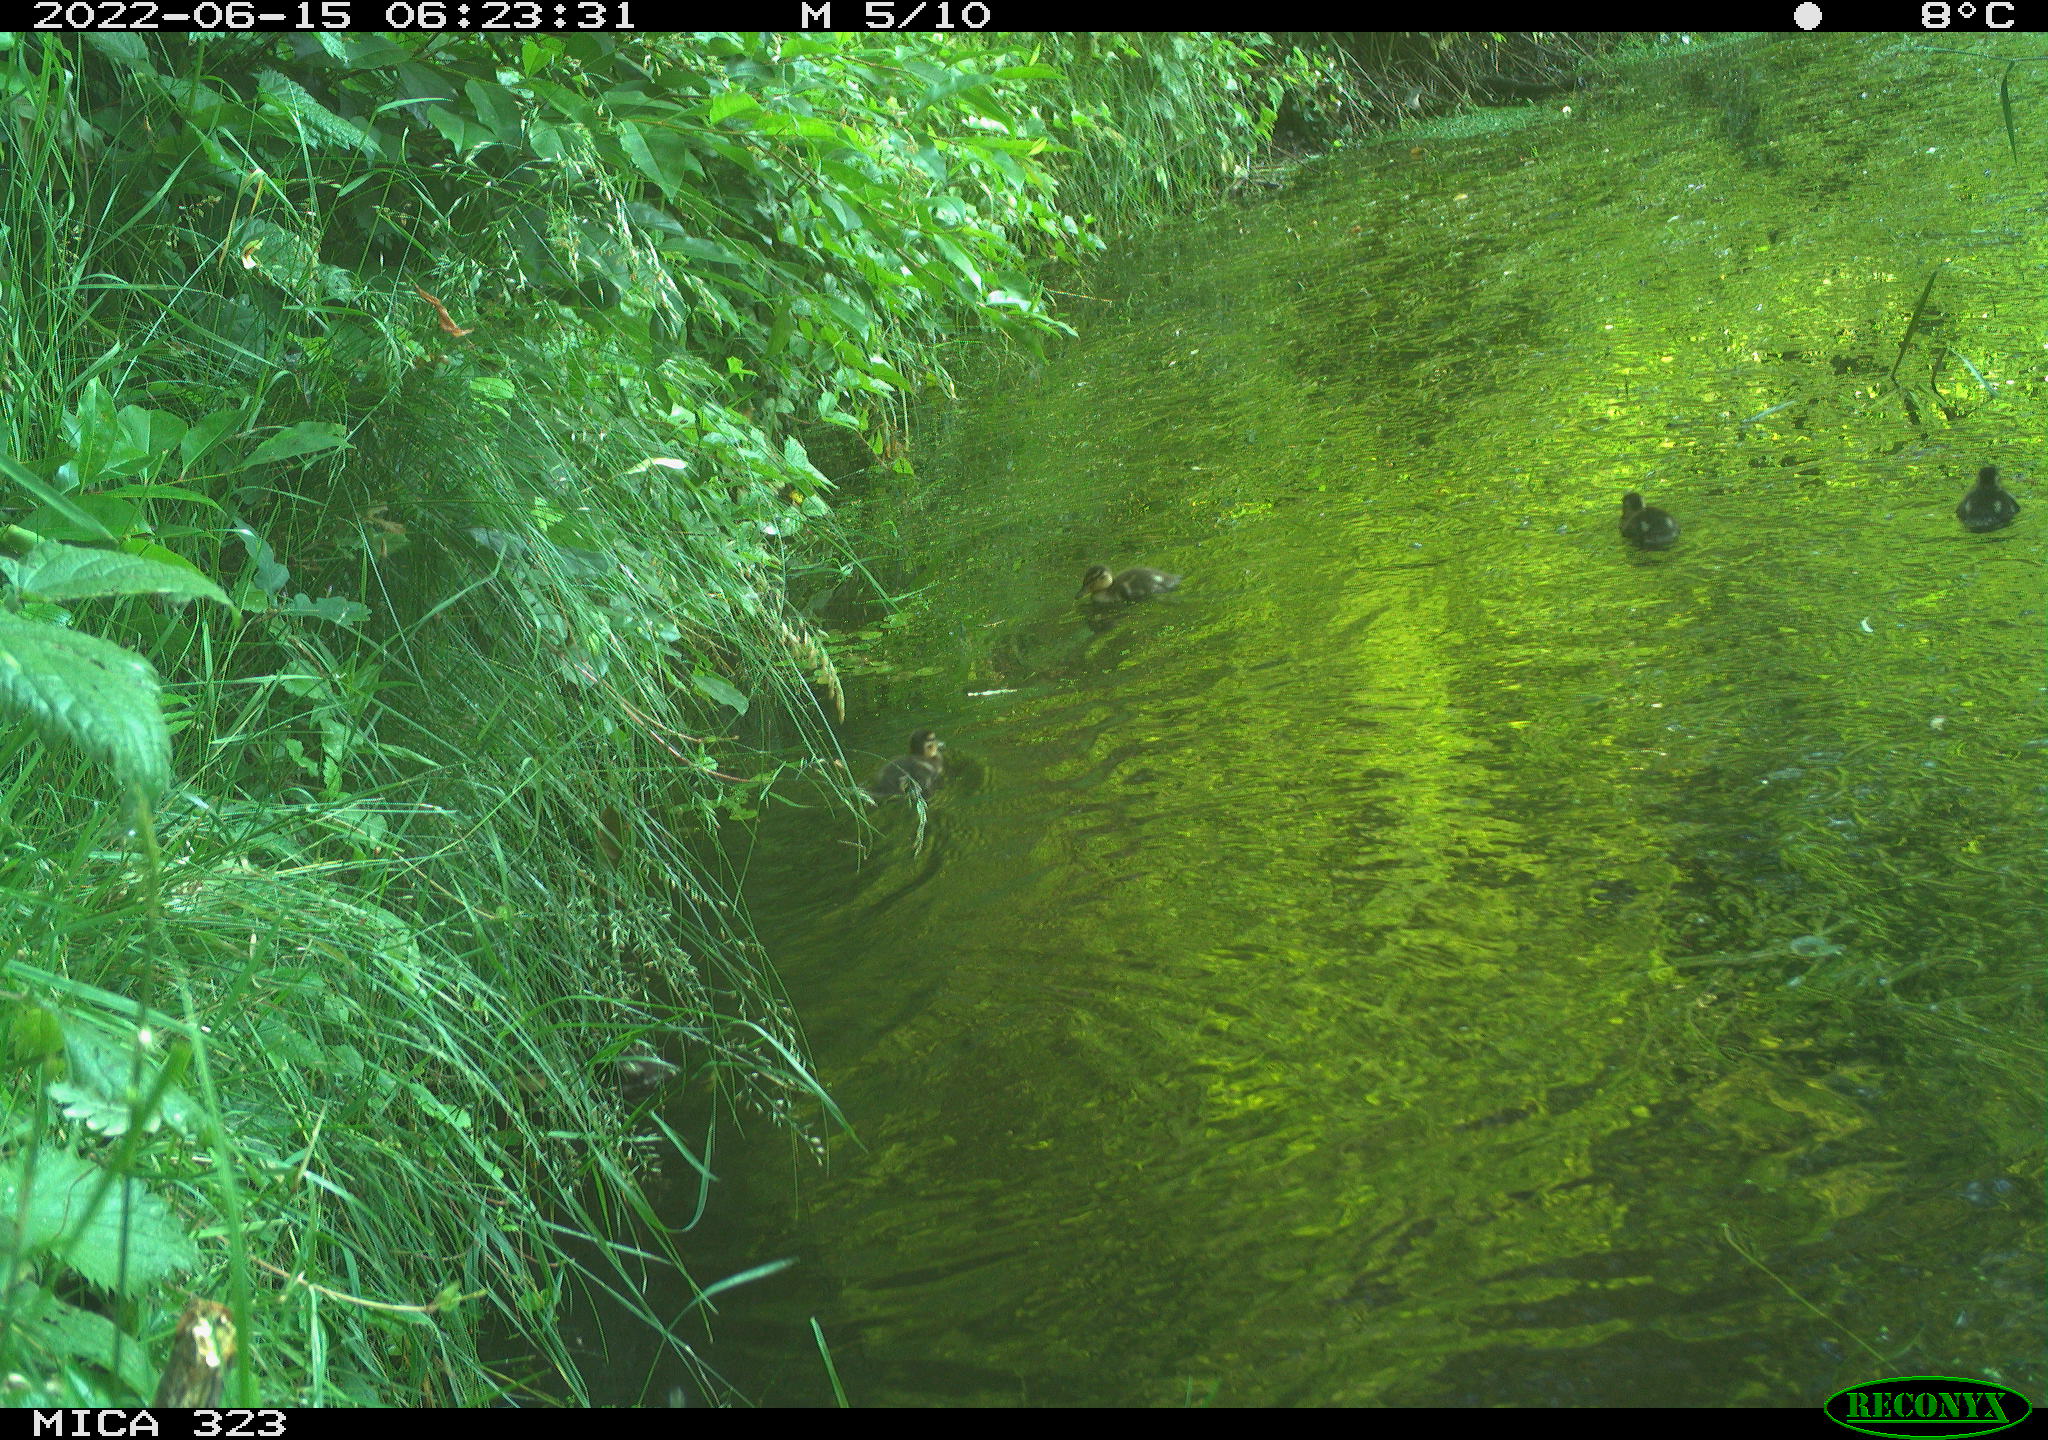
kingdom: Animalia
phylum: Chordata
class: Aves
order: Anseriformes
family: Anatidae
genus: Anas
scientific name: Anas
